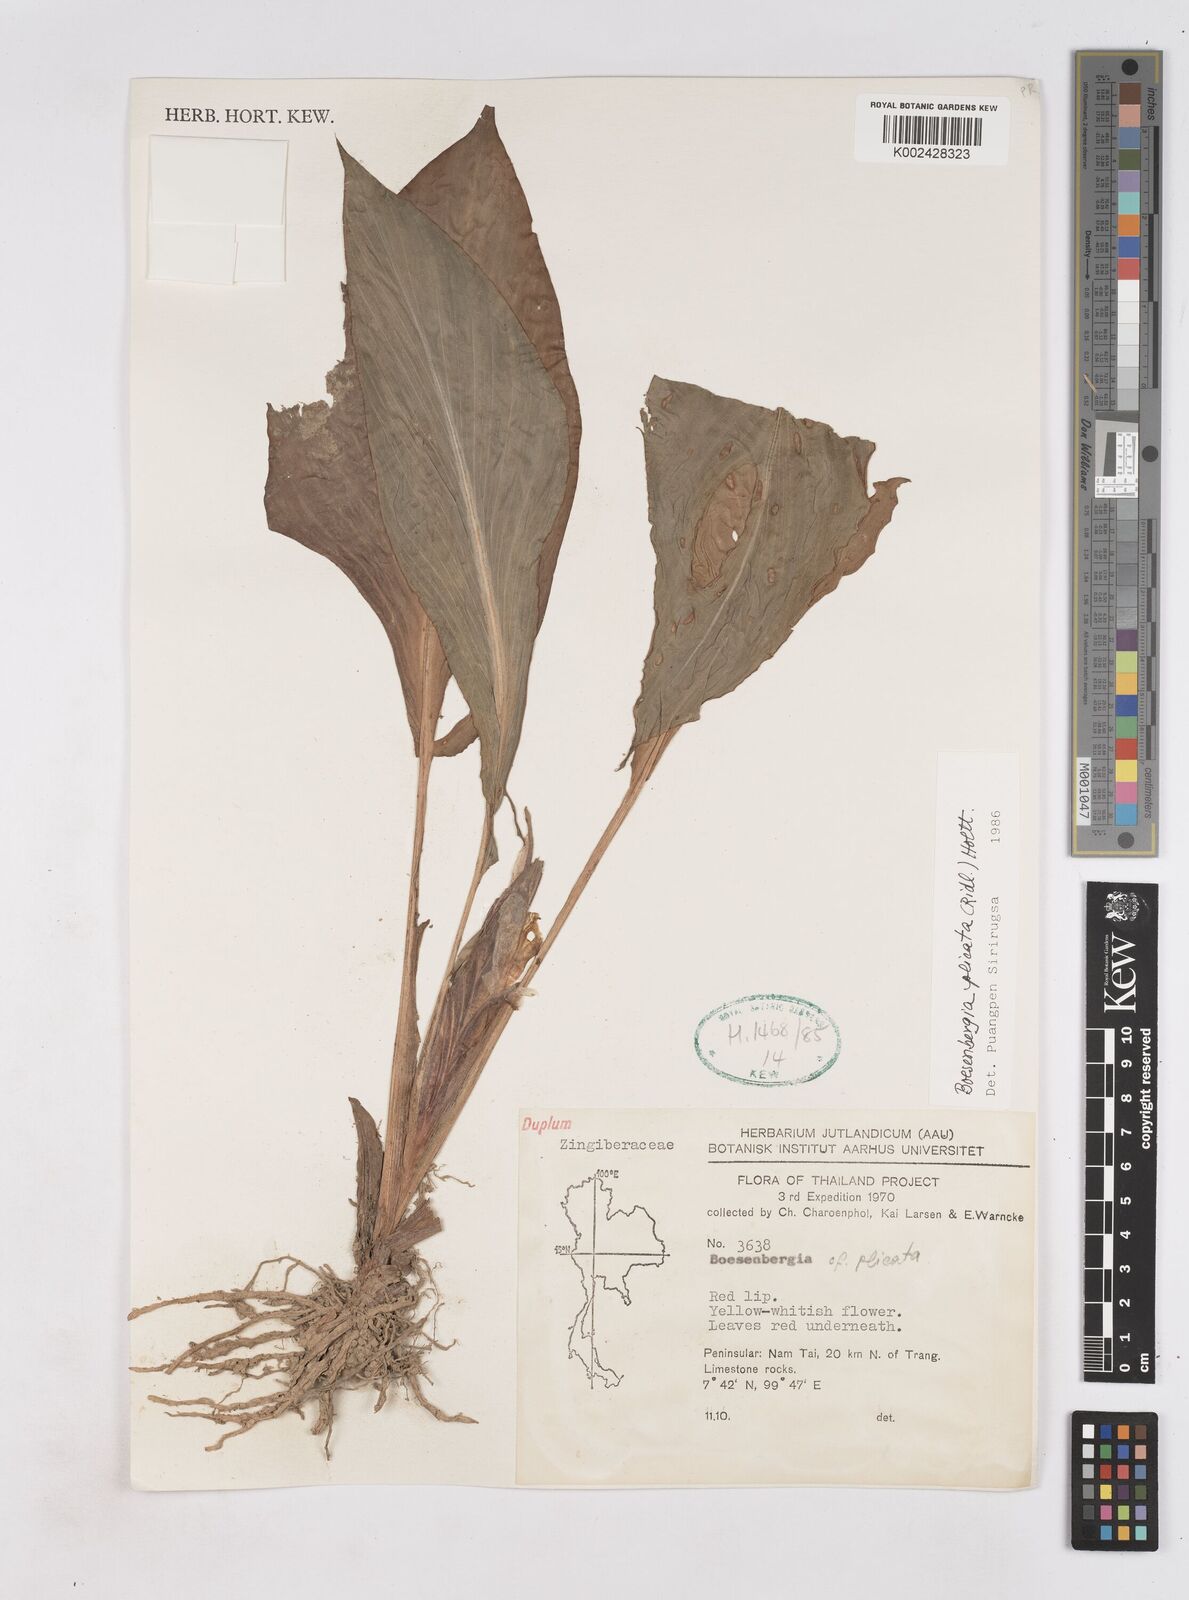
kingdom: Plantae
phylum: Tracheophyta
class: Liliopsida
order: Zingiberales
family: Zingiberaceae
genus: Boesenbergia
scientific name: Boesenbergia plicata
